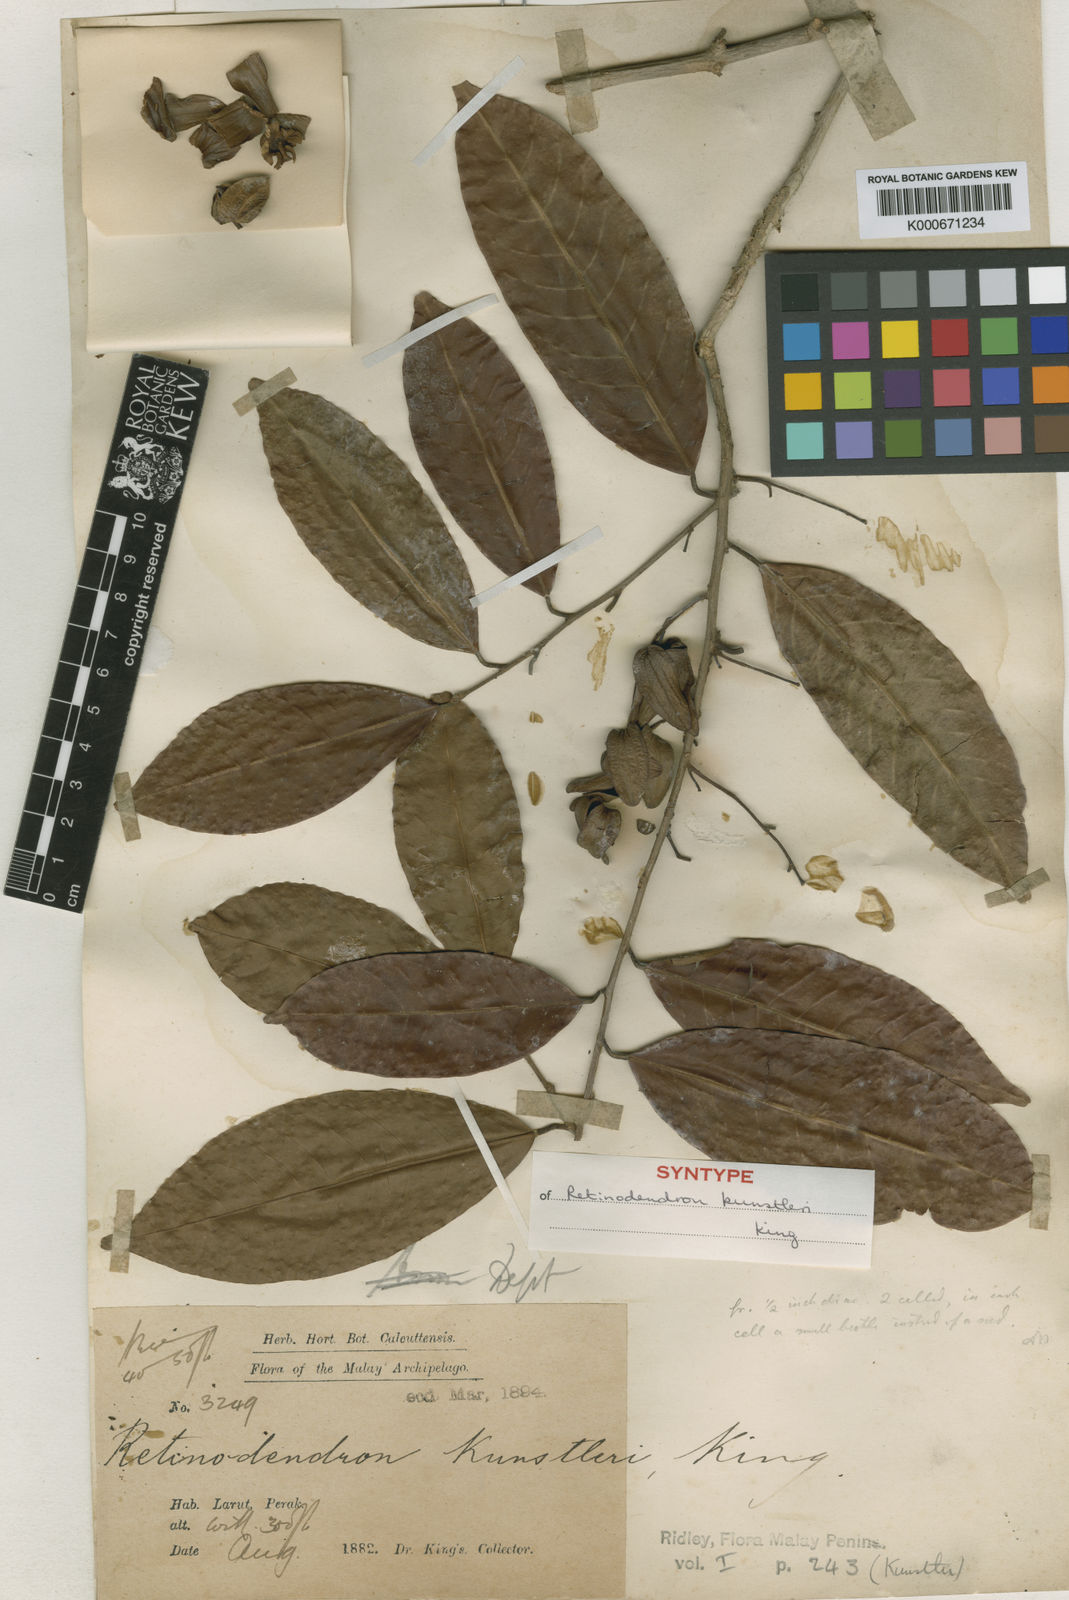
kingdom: Plantae
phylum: Tracheophyta
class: Magnoliopsida
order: Malvales
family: Dipterocarpaceae
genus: Vatica
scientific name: Vatica venulosa
